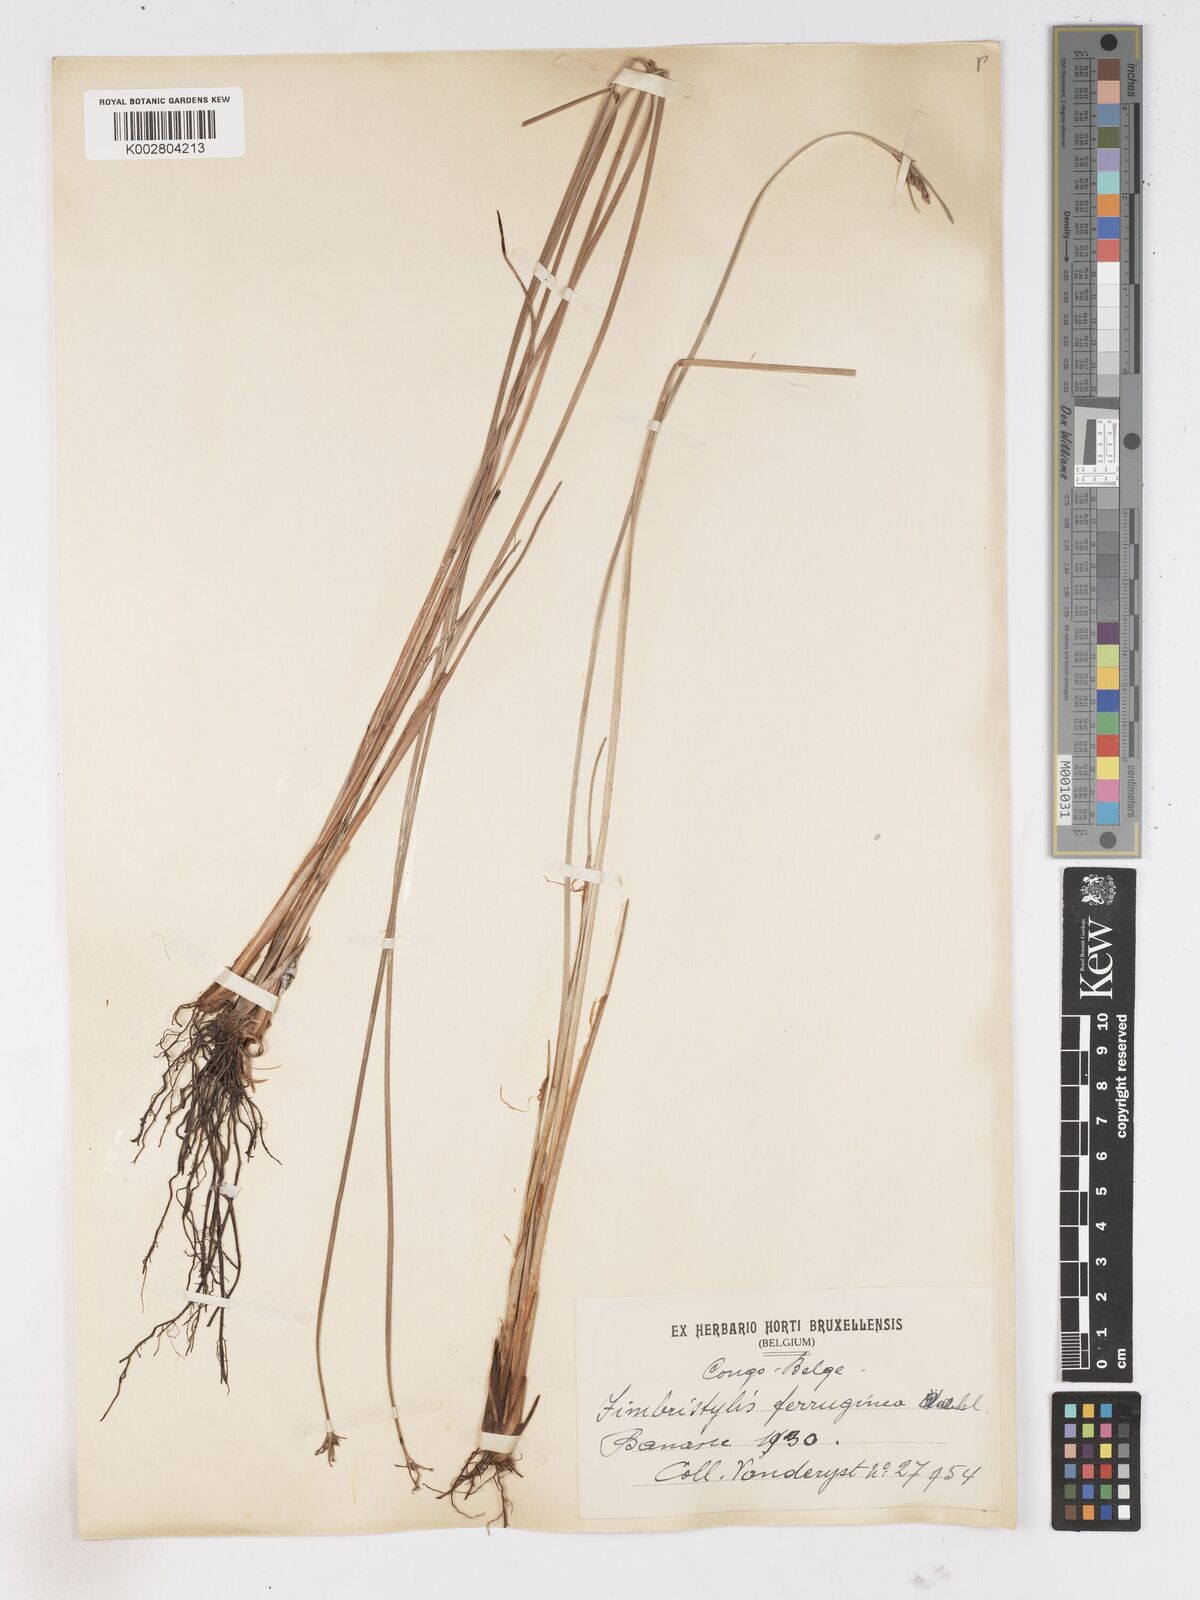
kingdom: Plantae
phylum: Tracheophyta
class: Liliopsida
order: Poales
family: Cyperaceae
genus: Fimbristylis
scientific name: Fimbristylis ferruginea
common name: West indian fimbry
